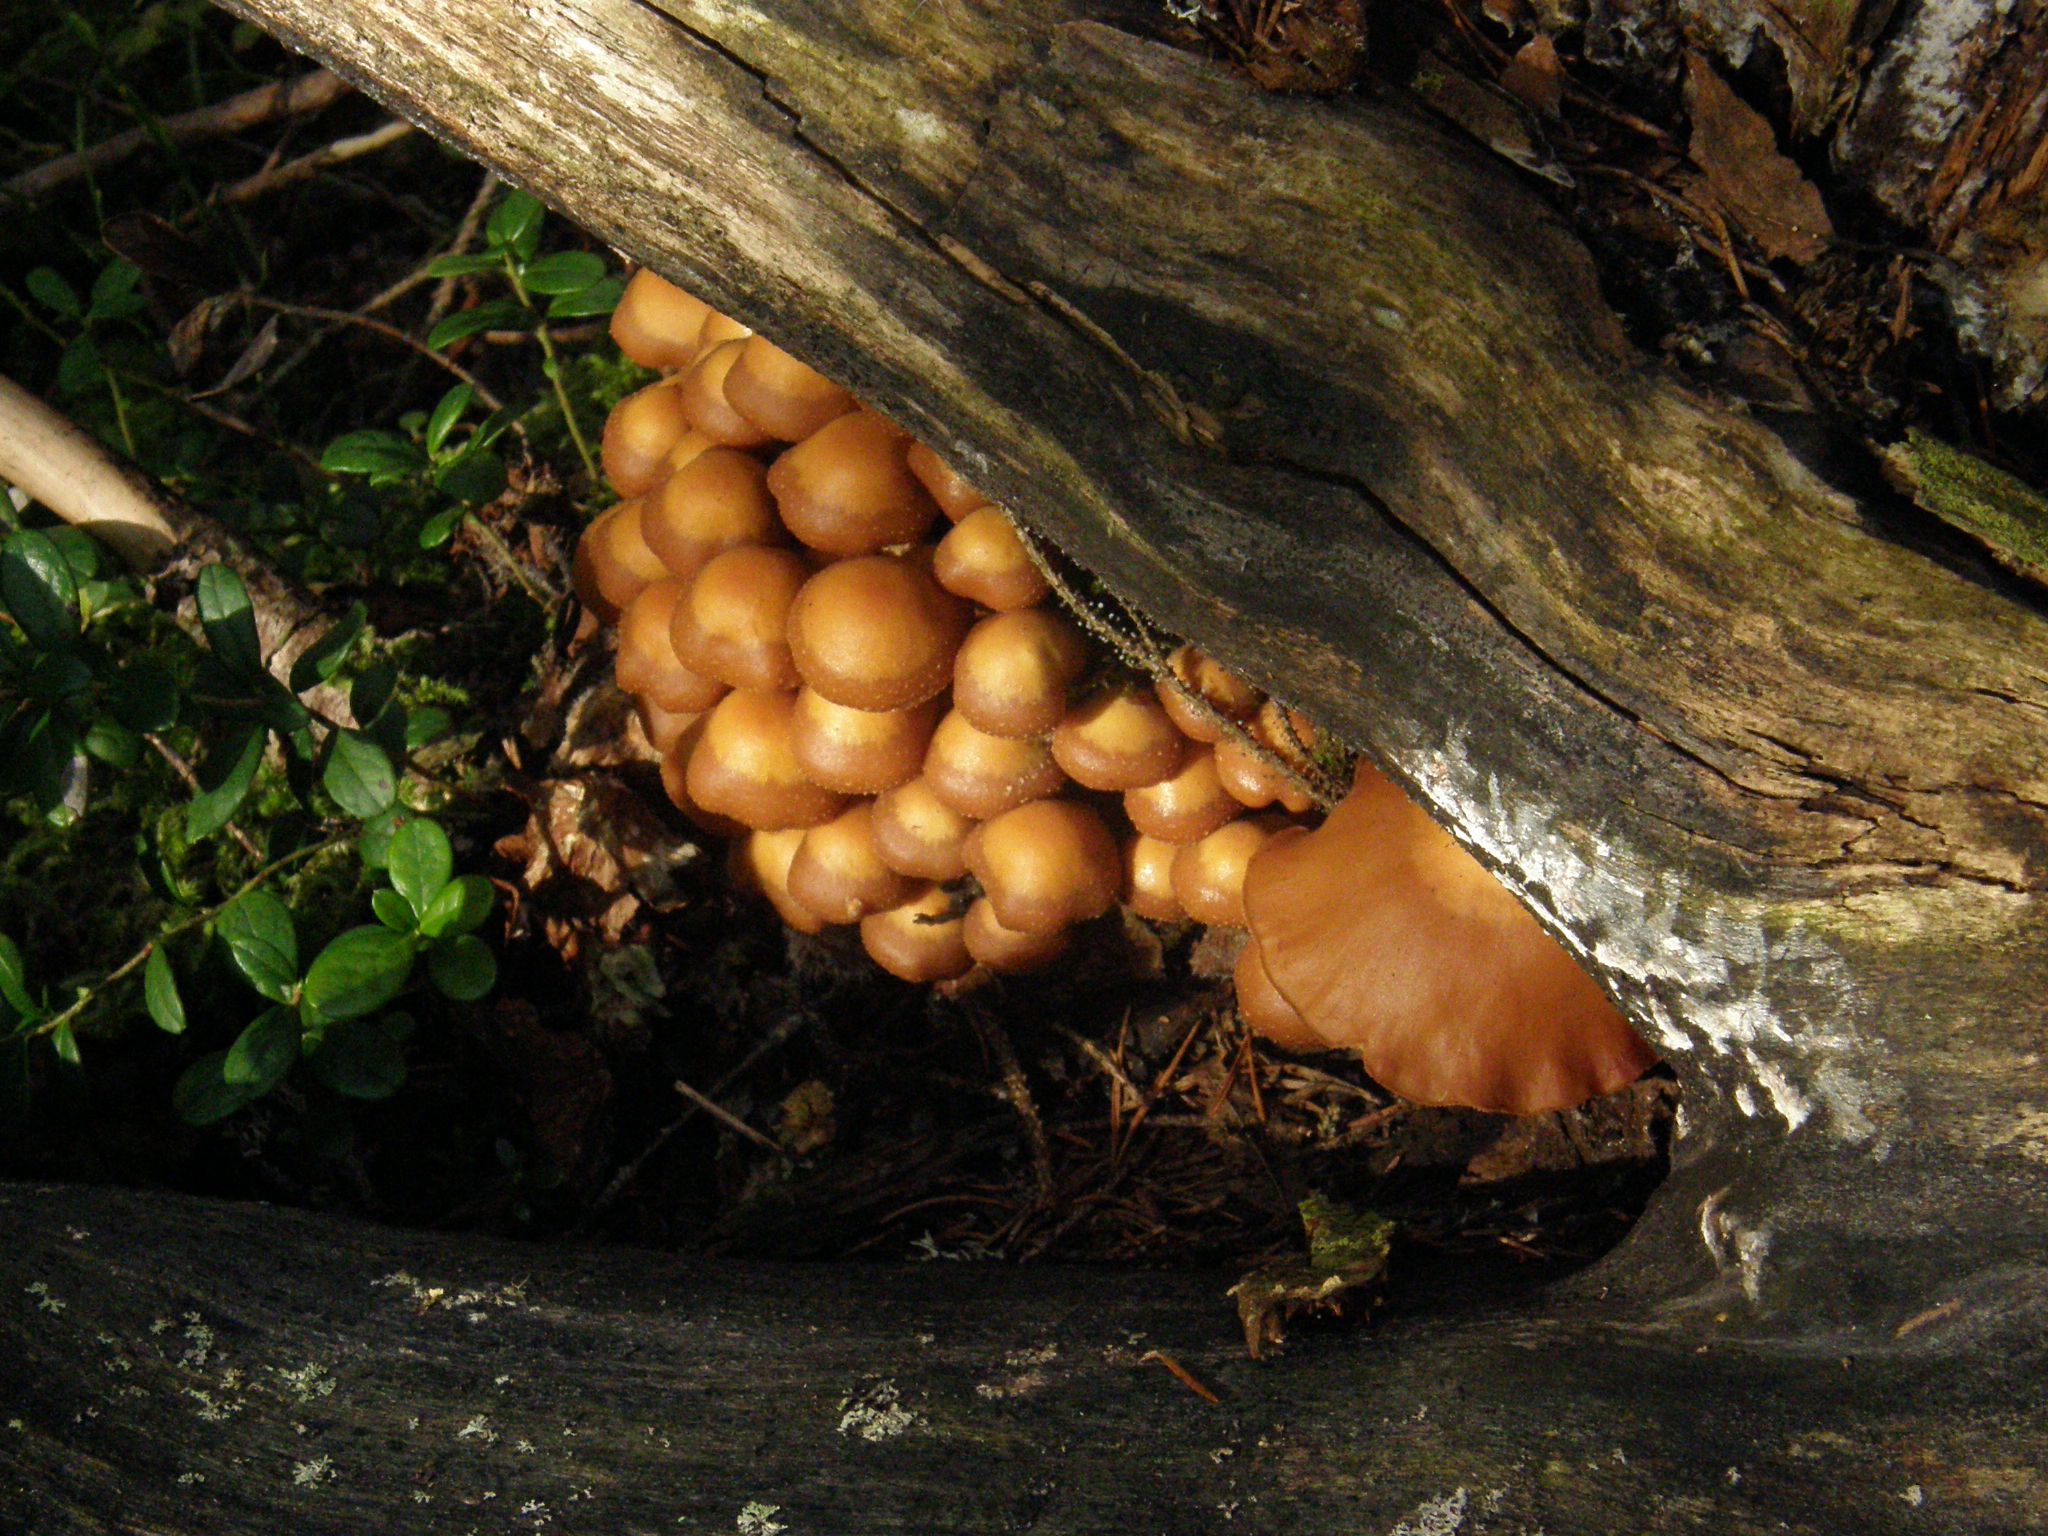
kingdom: Fungi
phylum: Basidiomycota
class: Agaricomycetes
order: Agaricales
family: Strophariaceae
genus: Kuehneromyces
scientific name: Kuehneromyces mutabilis
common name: Sheathed woodtuft
